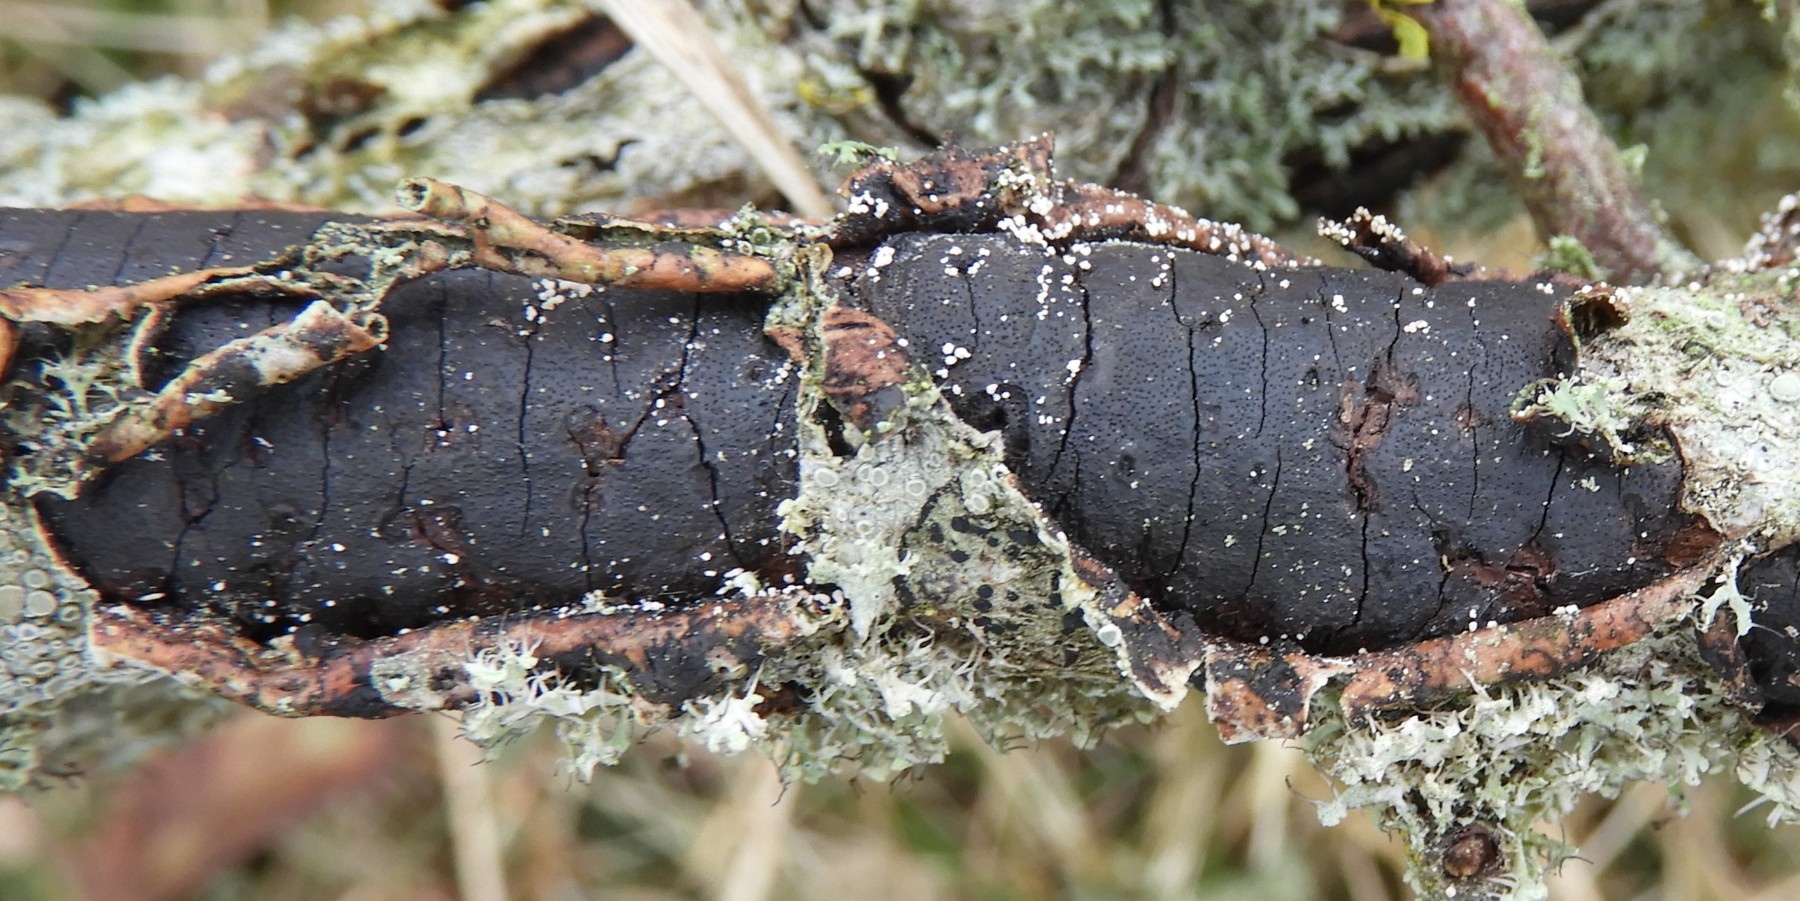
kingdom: Fungi
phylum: Ascomycota
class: Sordariomycetes
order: Xylariales
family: Diatrypaceae
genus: Diatrype
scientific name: Diatrype decorticata
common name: barksprænger-kulskorpe
